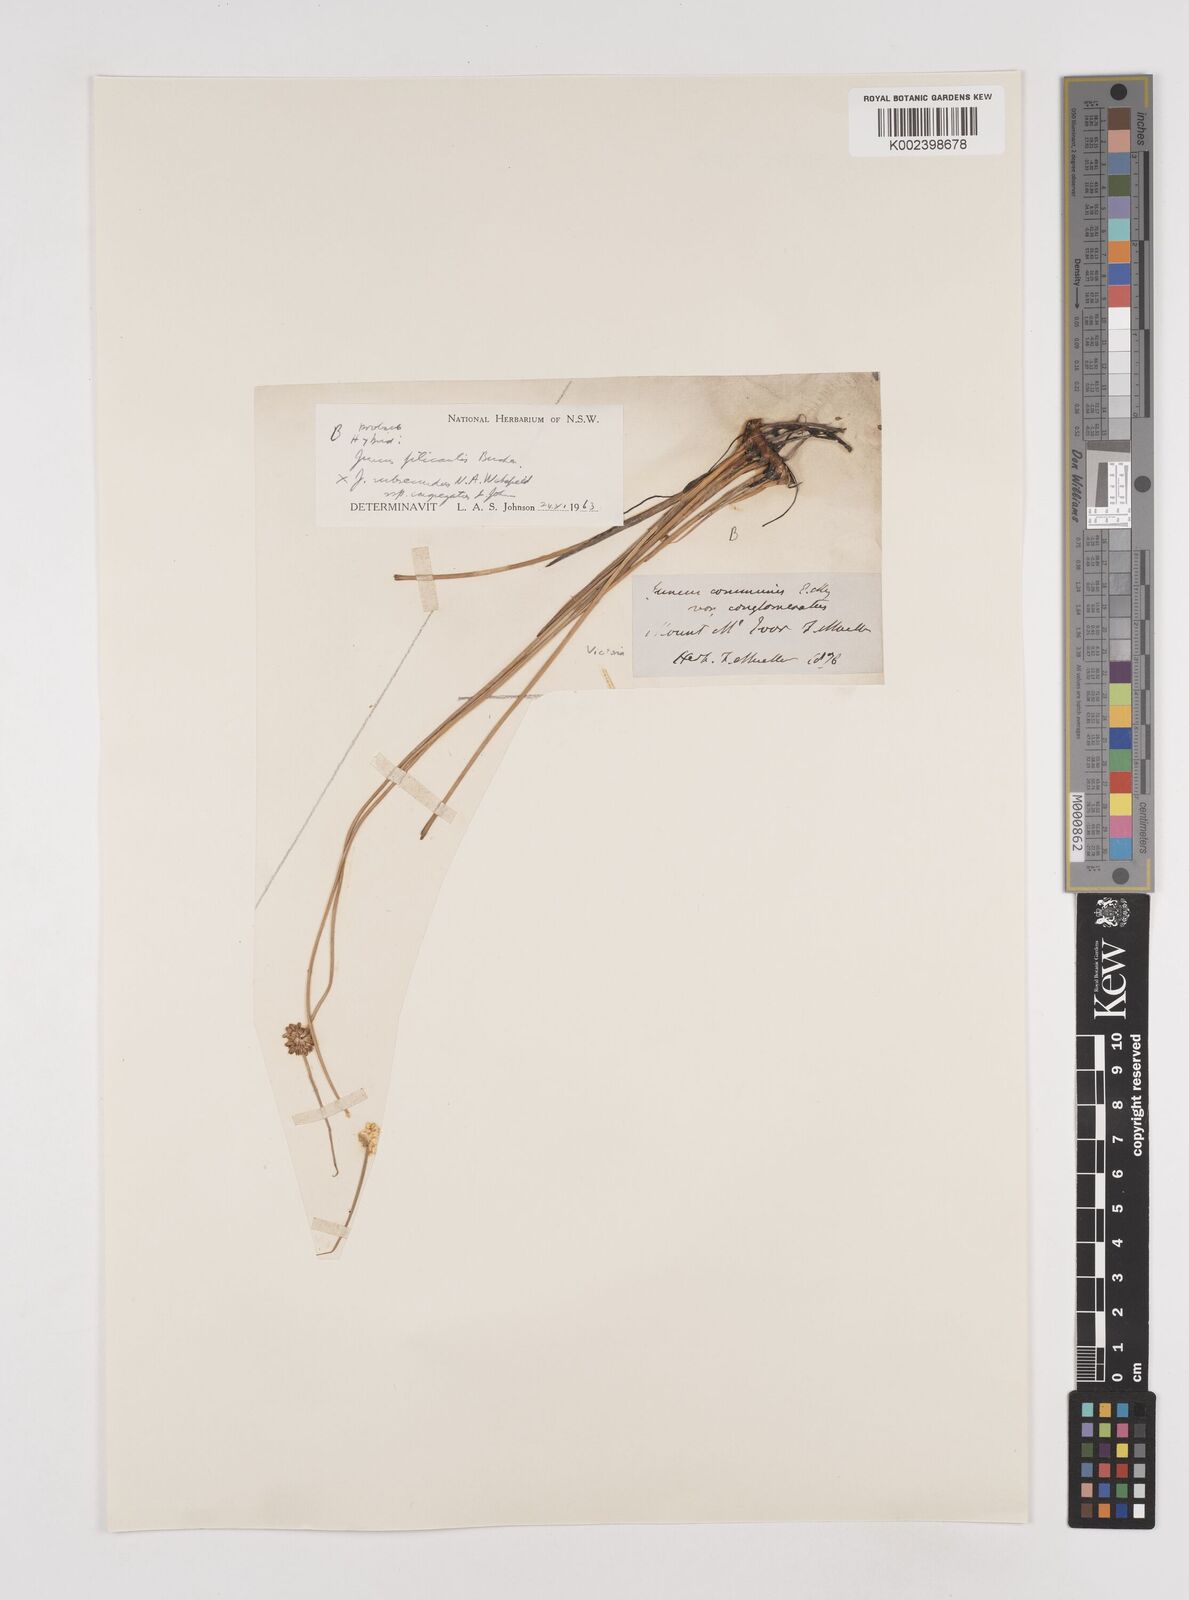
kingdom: Plantae
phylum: Tracheophyta
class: Liliopsida
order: Poales
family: Juncaceae
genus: Juncus
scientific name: Juncus filicaulis
